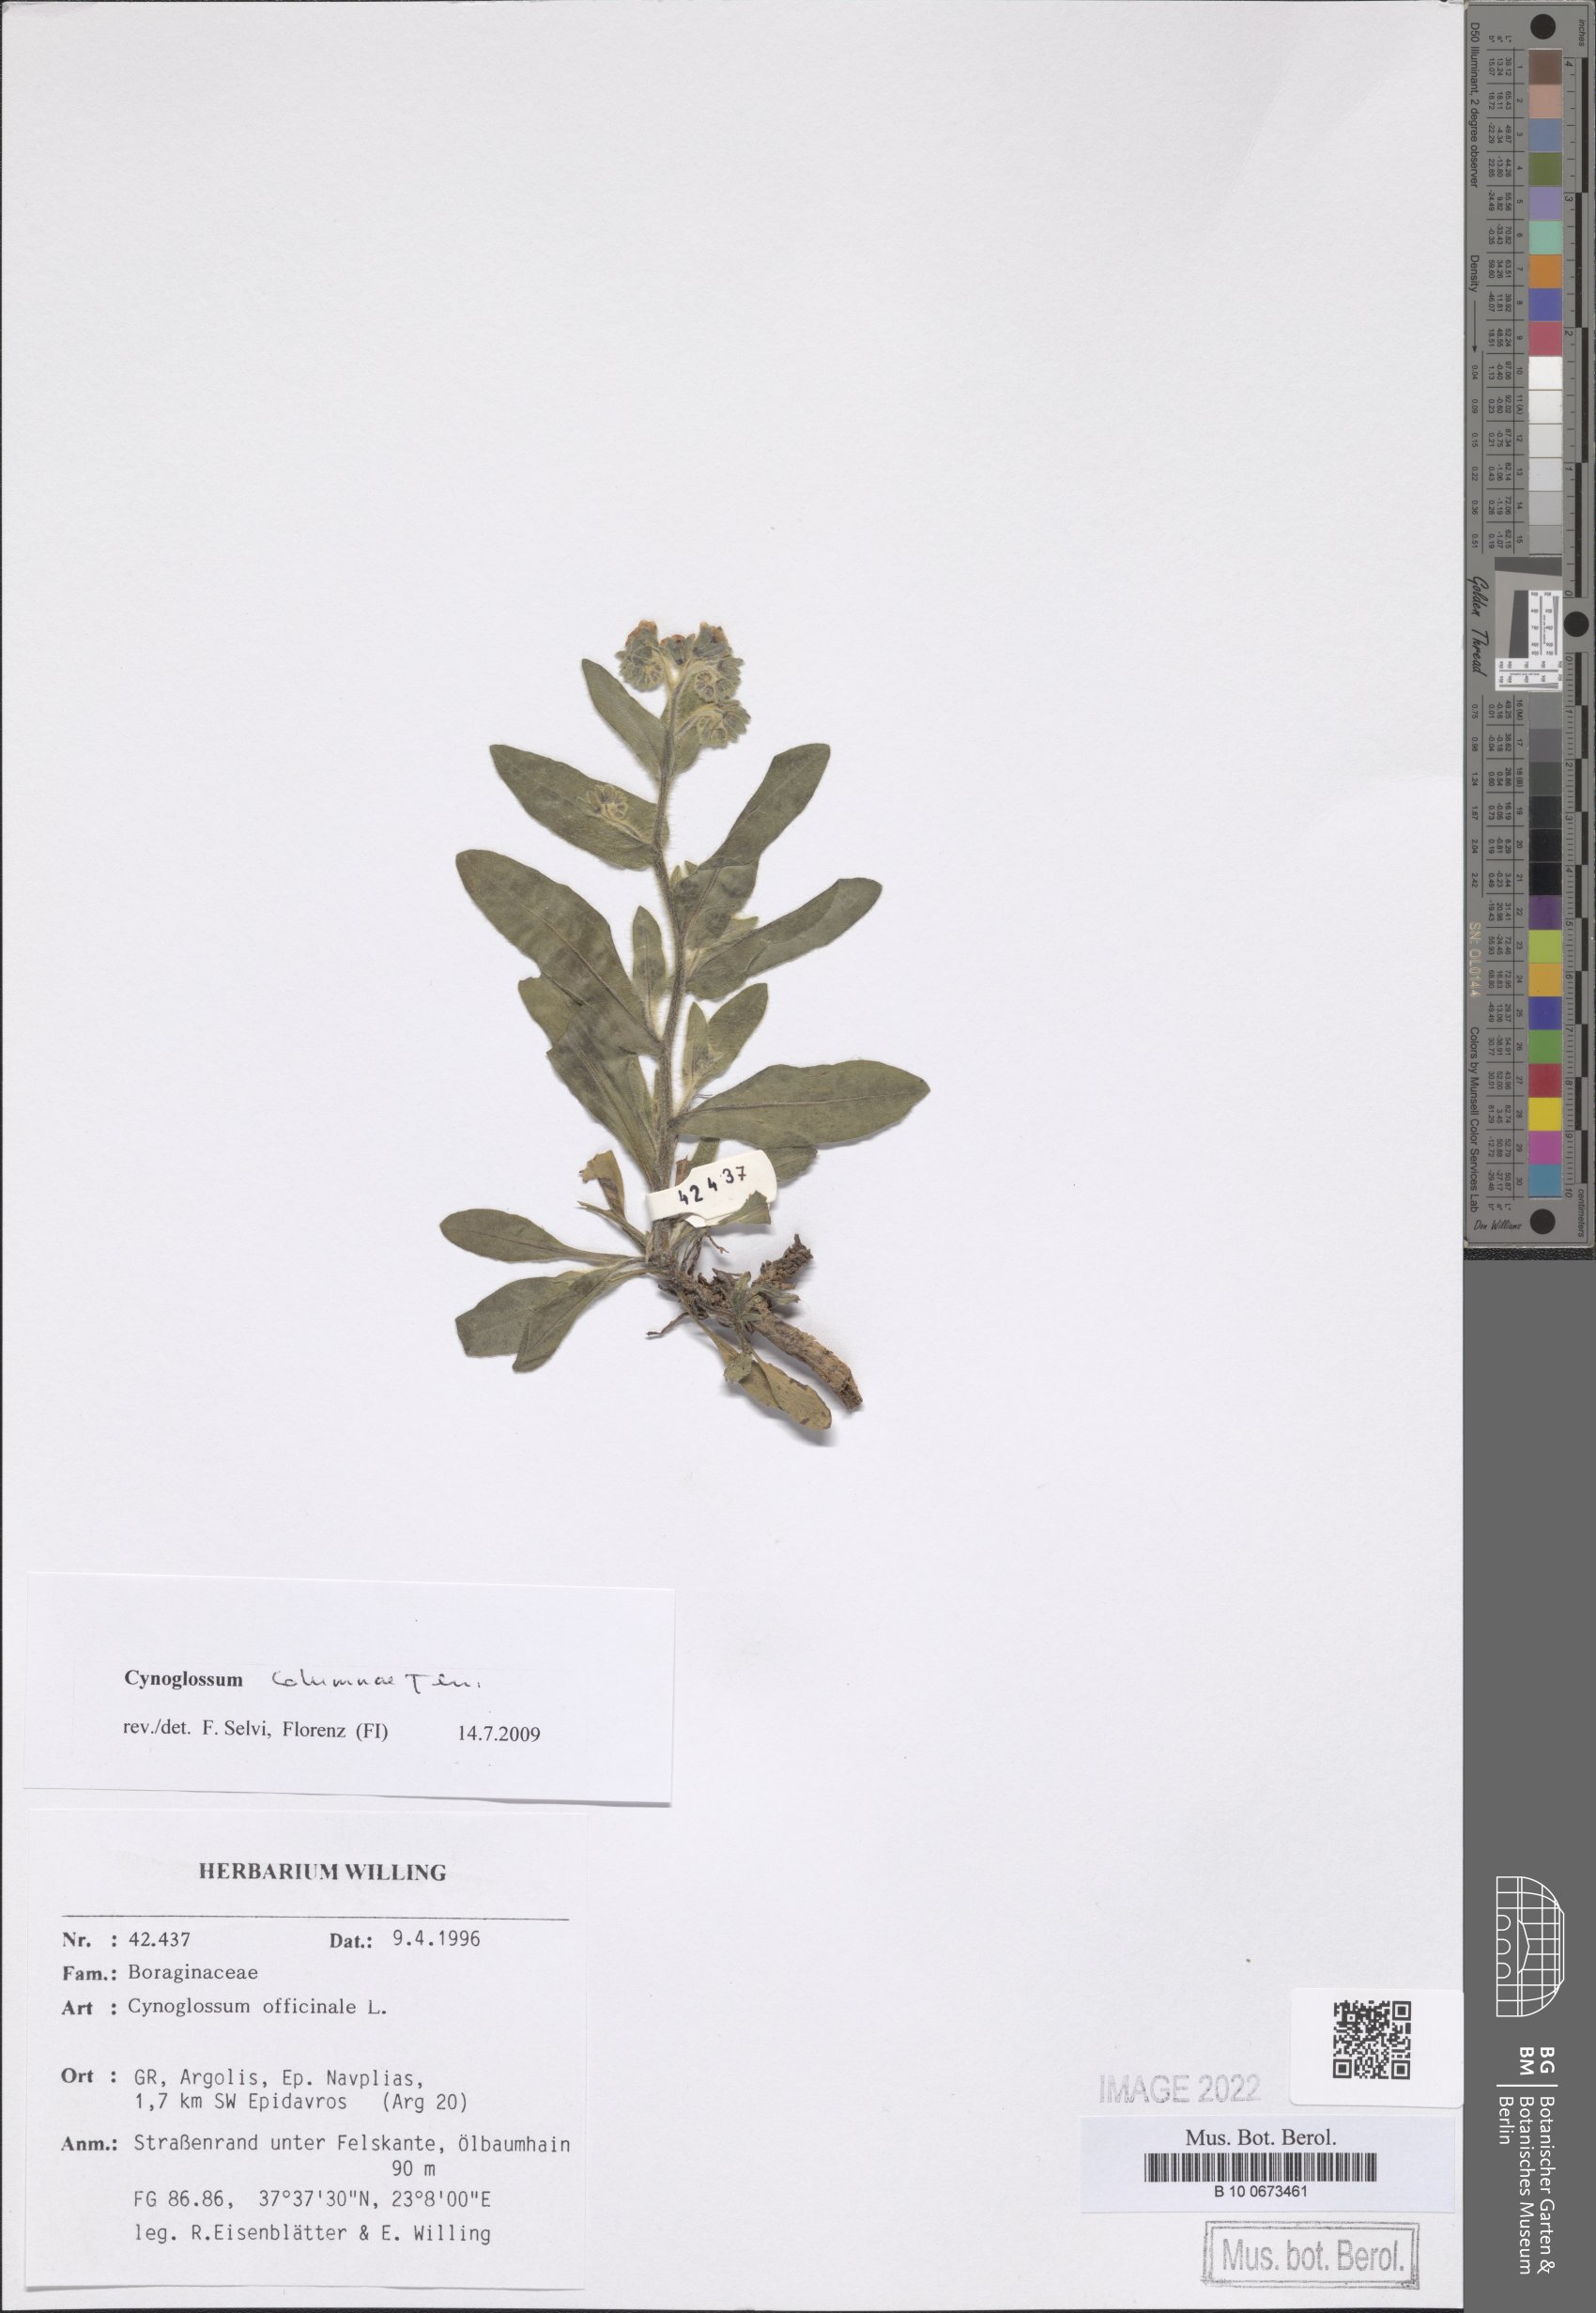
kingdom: Plantae
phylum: Tracheophyta
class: Magnoliopsida
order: Boraginales
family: Boraginaceae
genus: Rindera
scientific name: Rindera columnae
